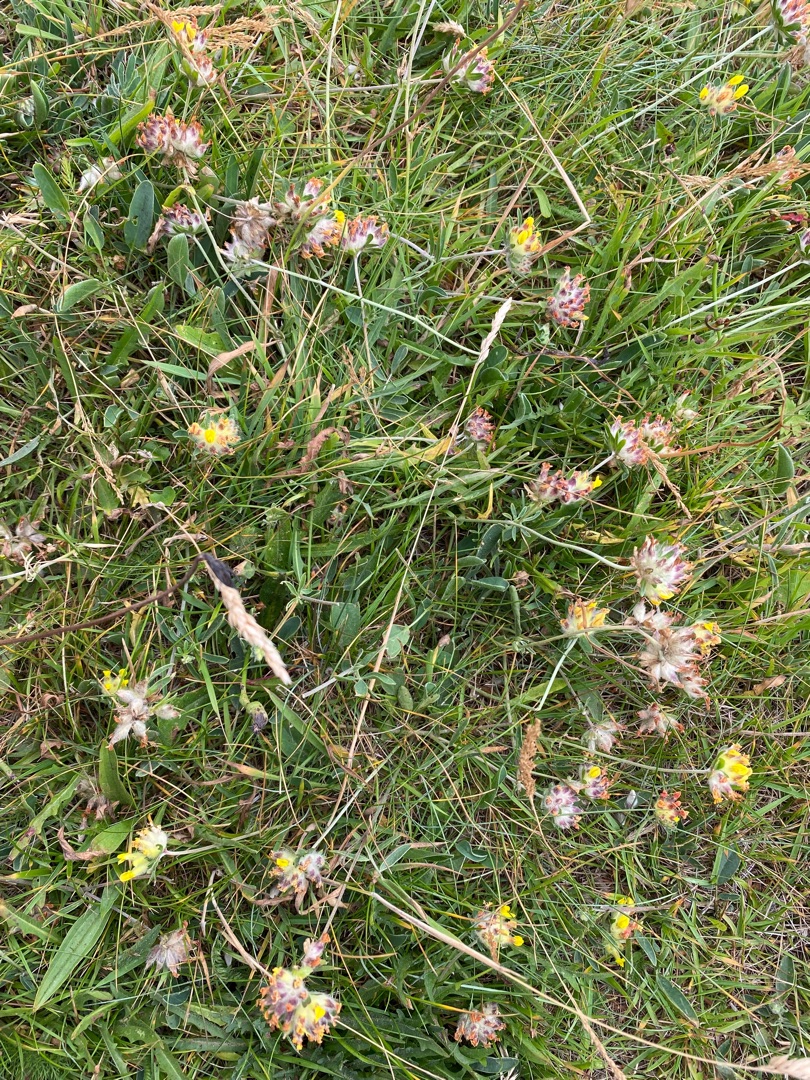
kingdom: Plantae
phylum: Tracheophyta
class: Magnoliopsida
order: Fabales
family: Fabaceae
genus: Anthyllis
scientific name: Anthyllis vulneraria
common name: Rundbælg
